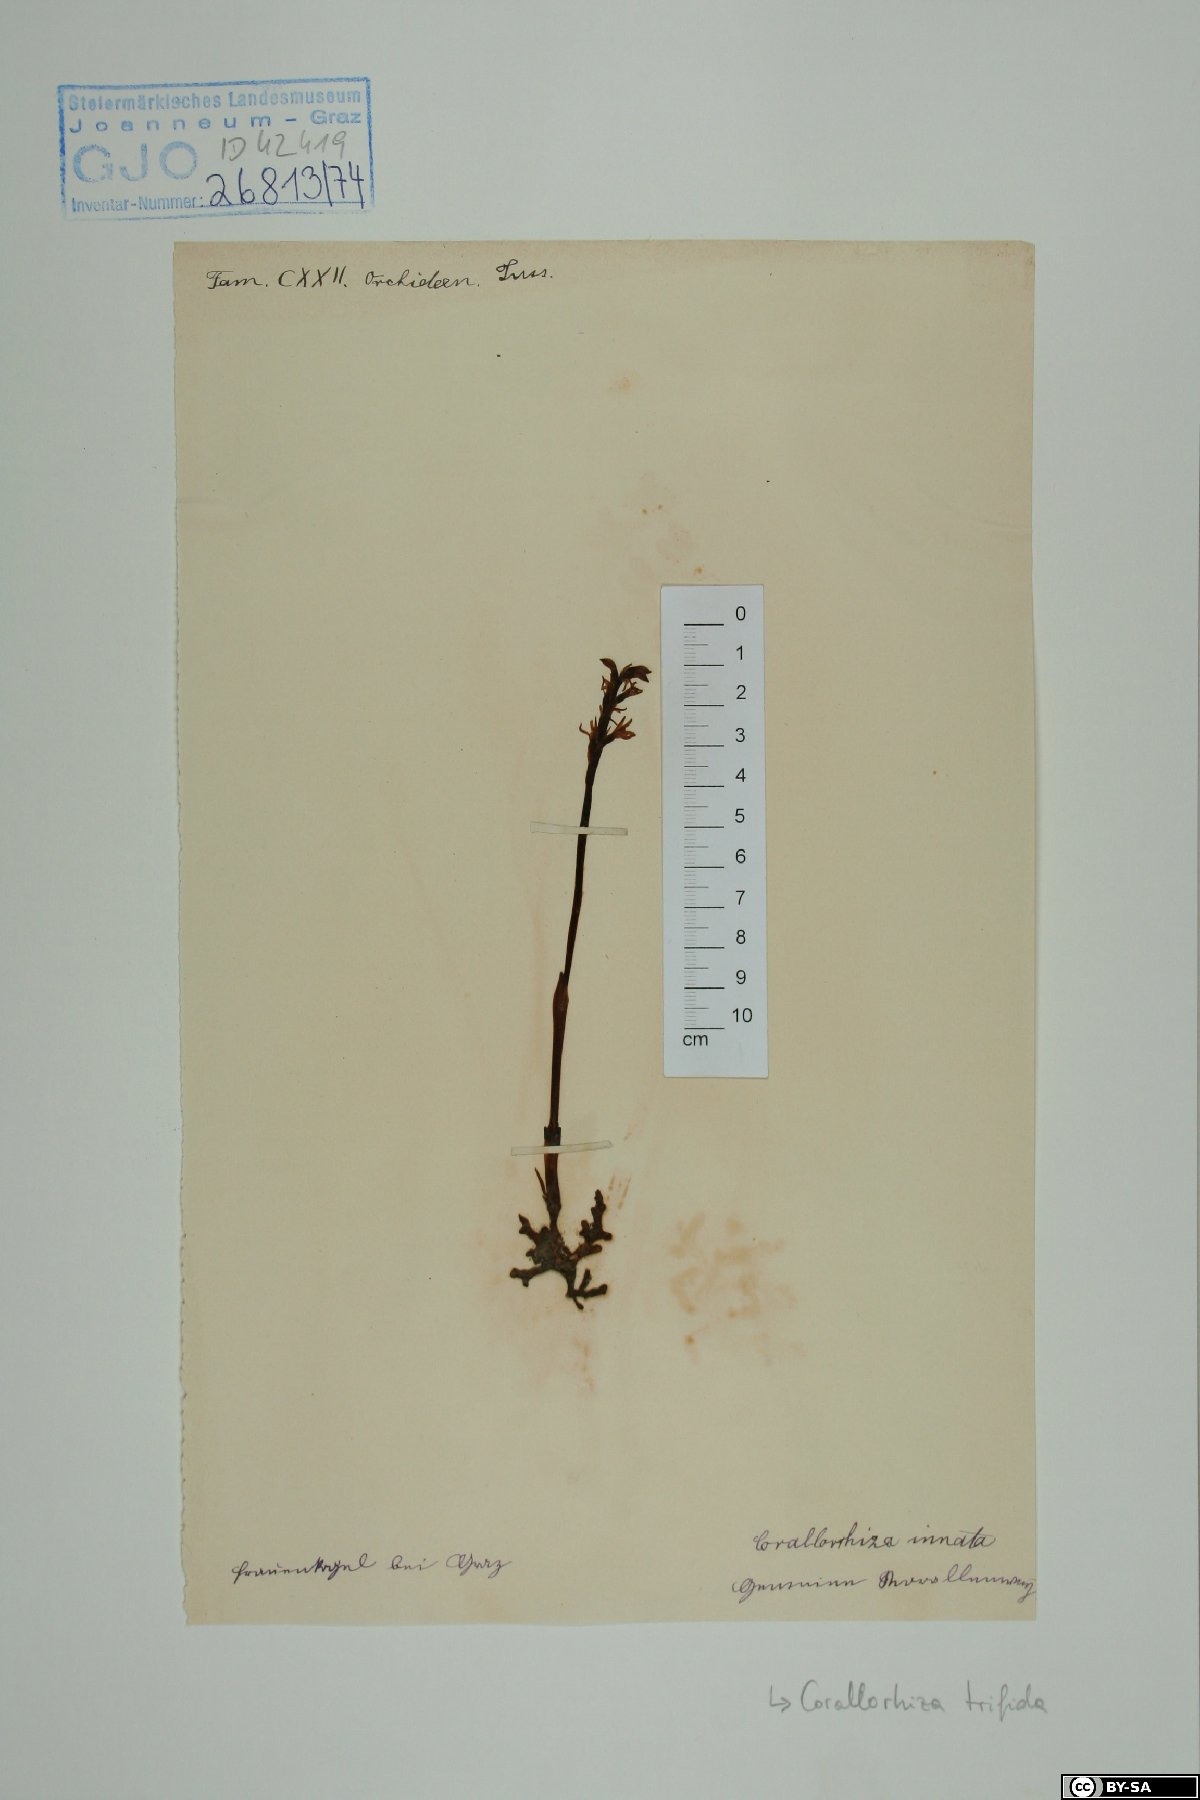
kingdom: Plantae
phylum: Tracheophyta
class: Liliopsida
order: Asparagales
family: Orchidaceae
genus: Corallorhiza
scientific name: Corallorhiza trifida
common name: Yellow coralroot
